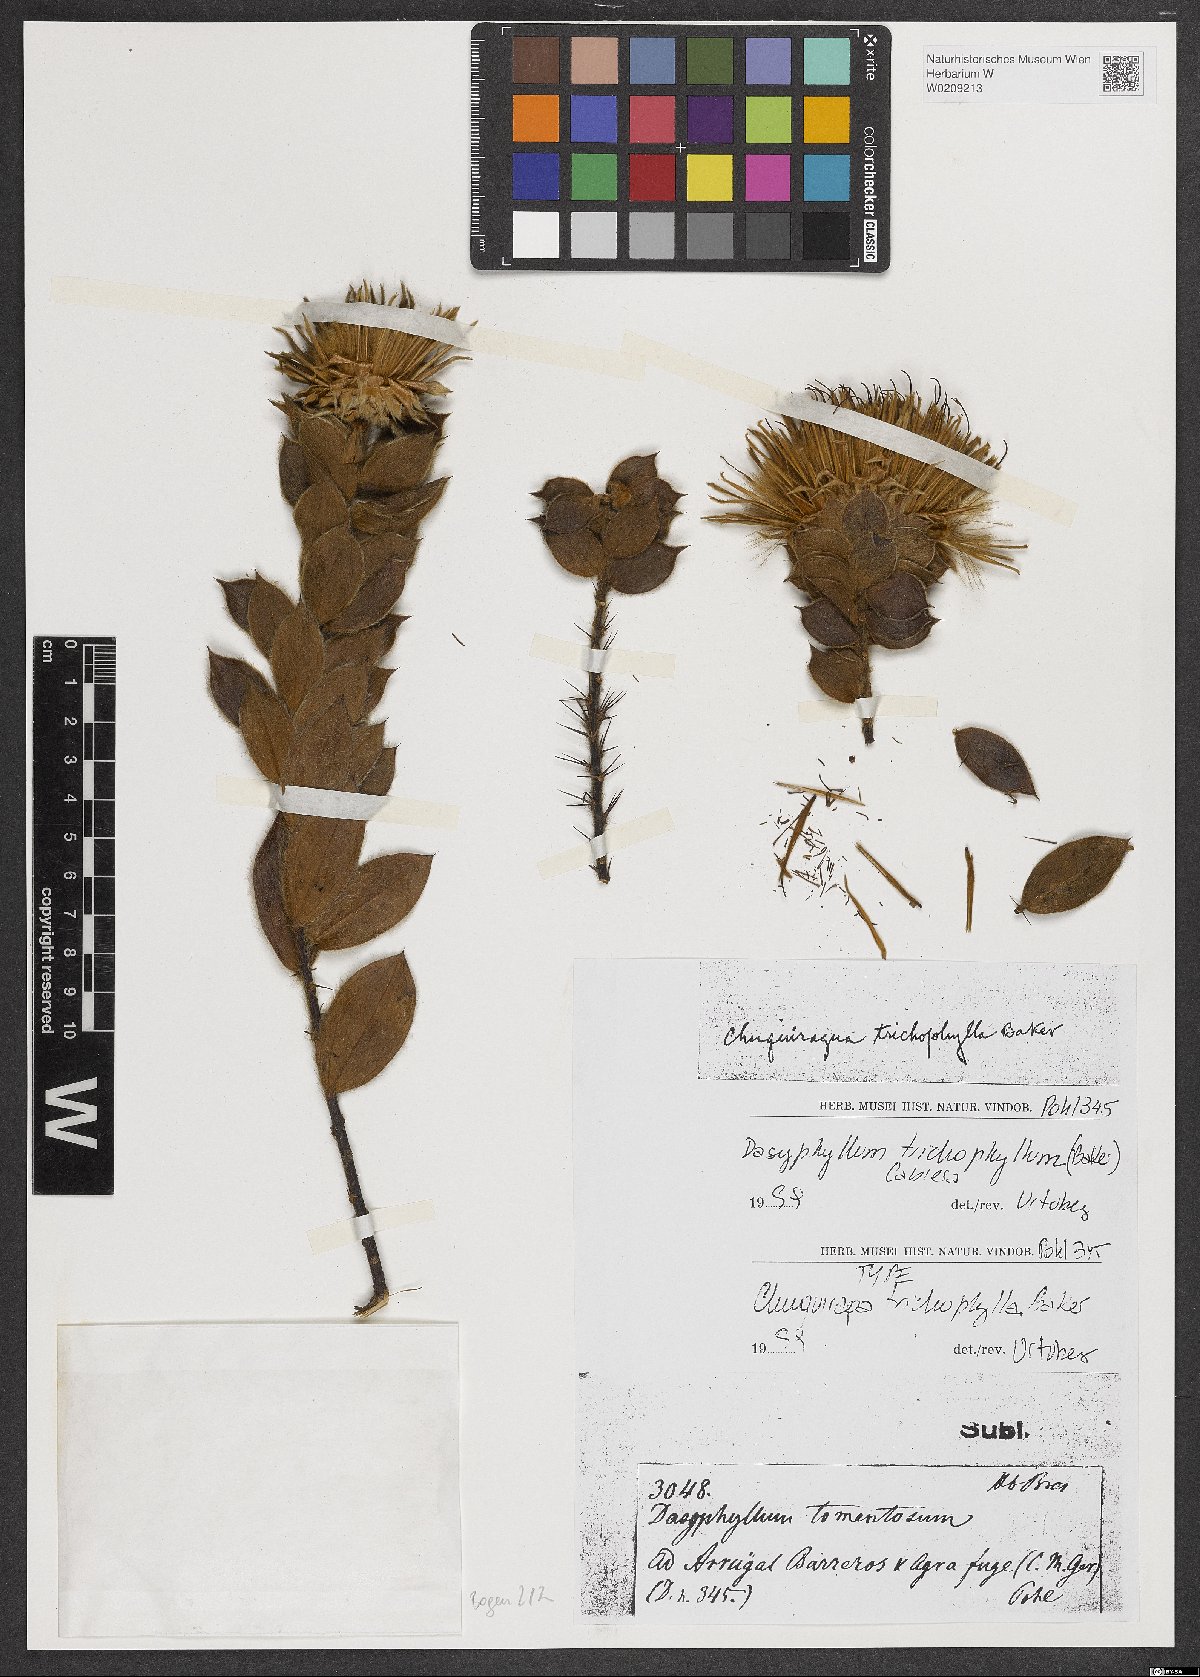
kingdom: Plantae
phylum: Tracheophyta
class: Magnoliopsida
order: Asterales
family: Asteraceae
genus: Dasyphyllum
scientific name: Dasyphyllum trichophyllum
